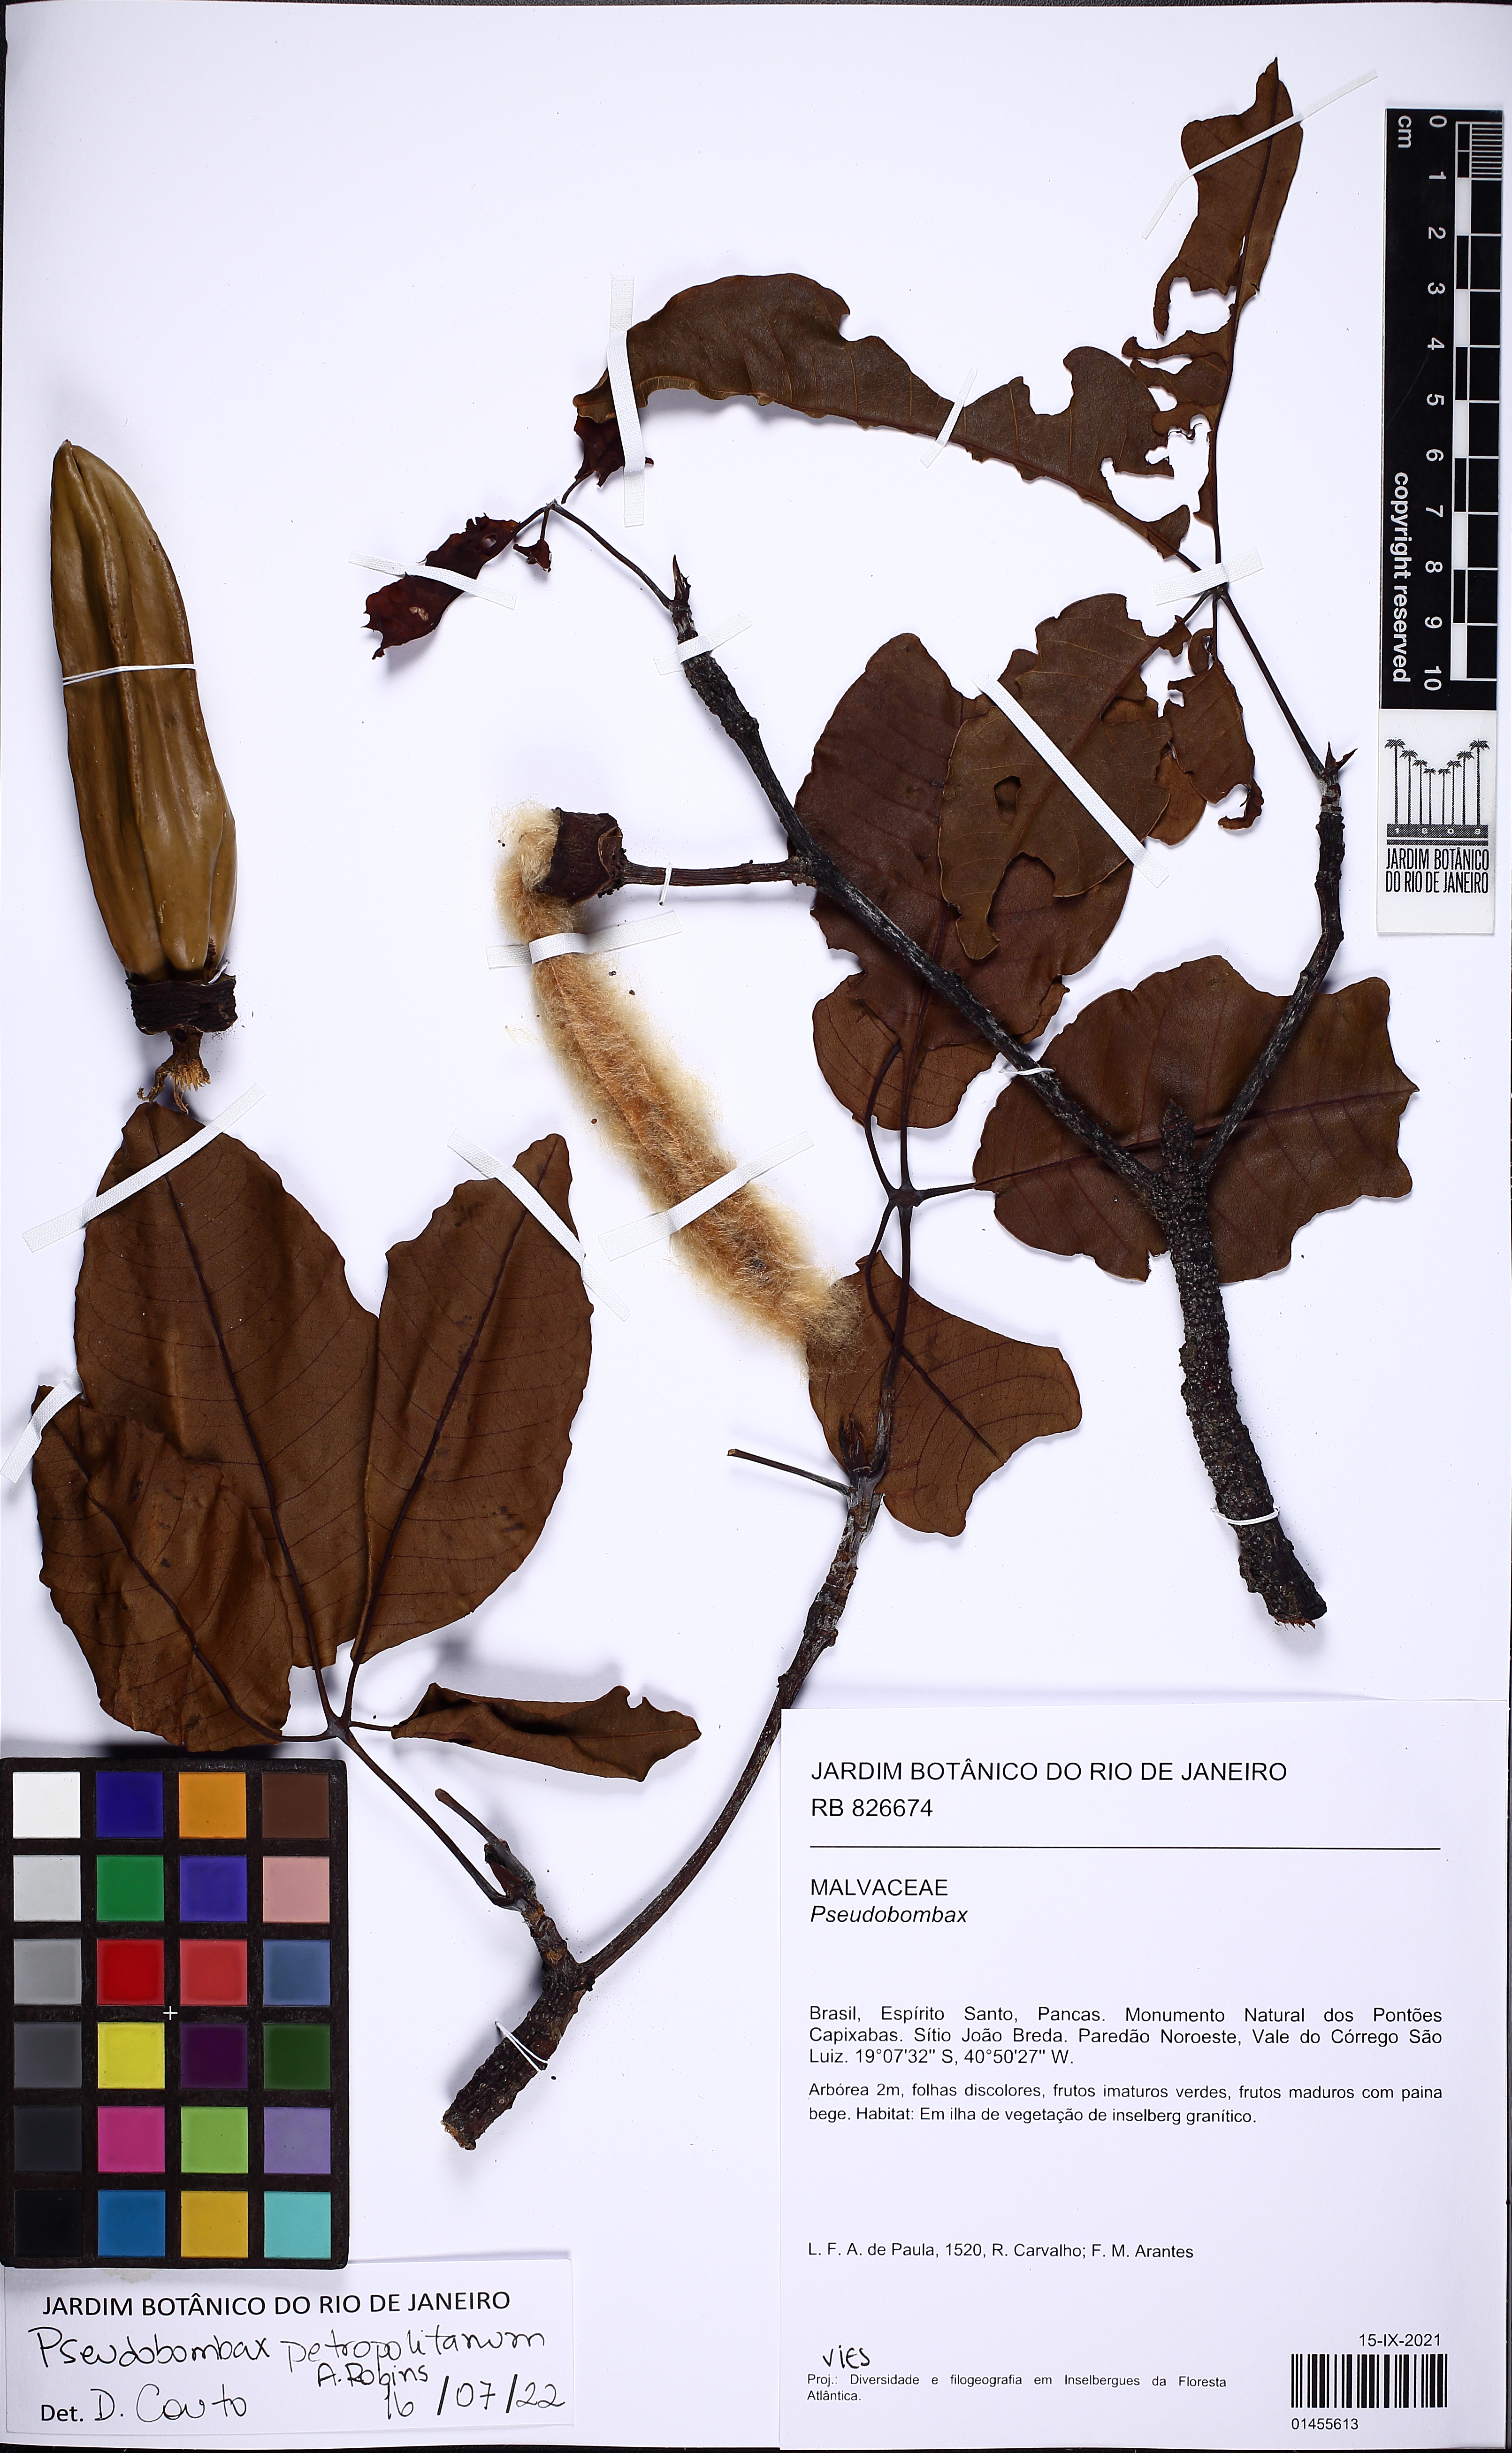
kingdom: Plantae
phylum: Tracheophyta
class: Magnoliopsida
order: Malvales
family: Malvaceae
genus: Pseudobombax
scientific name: Pseudobombax petropolitanum
